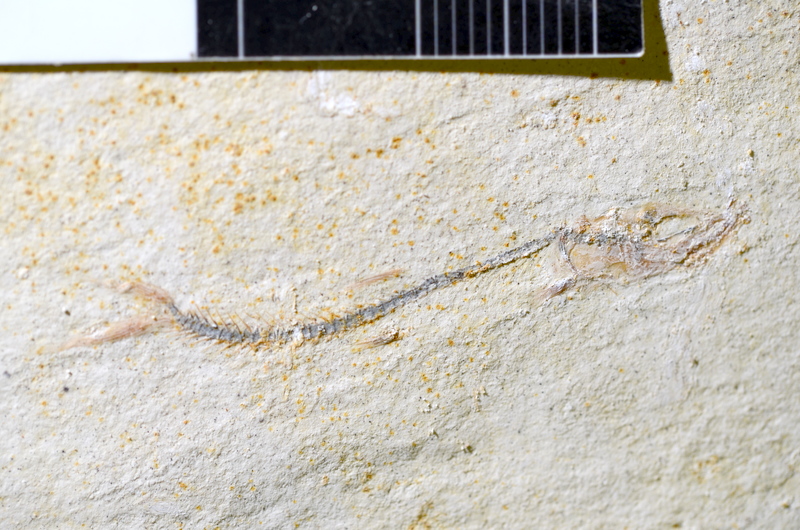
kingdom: Animalia
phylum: Chordata
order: Salmoniformes
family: Orthogonikleithridae
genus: Orthogonikleithrus
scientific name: Orthogonikleithrus hoelli
